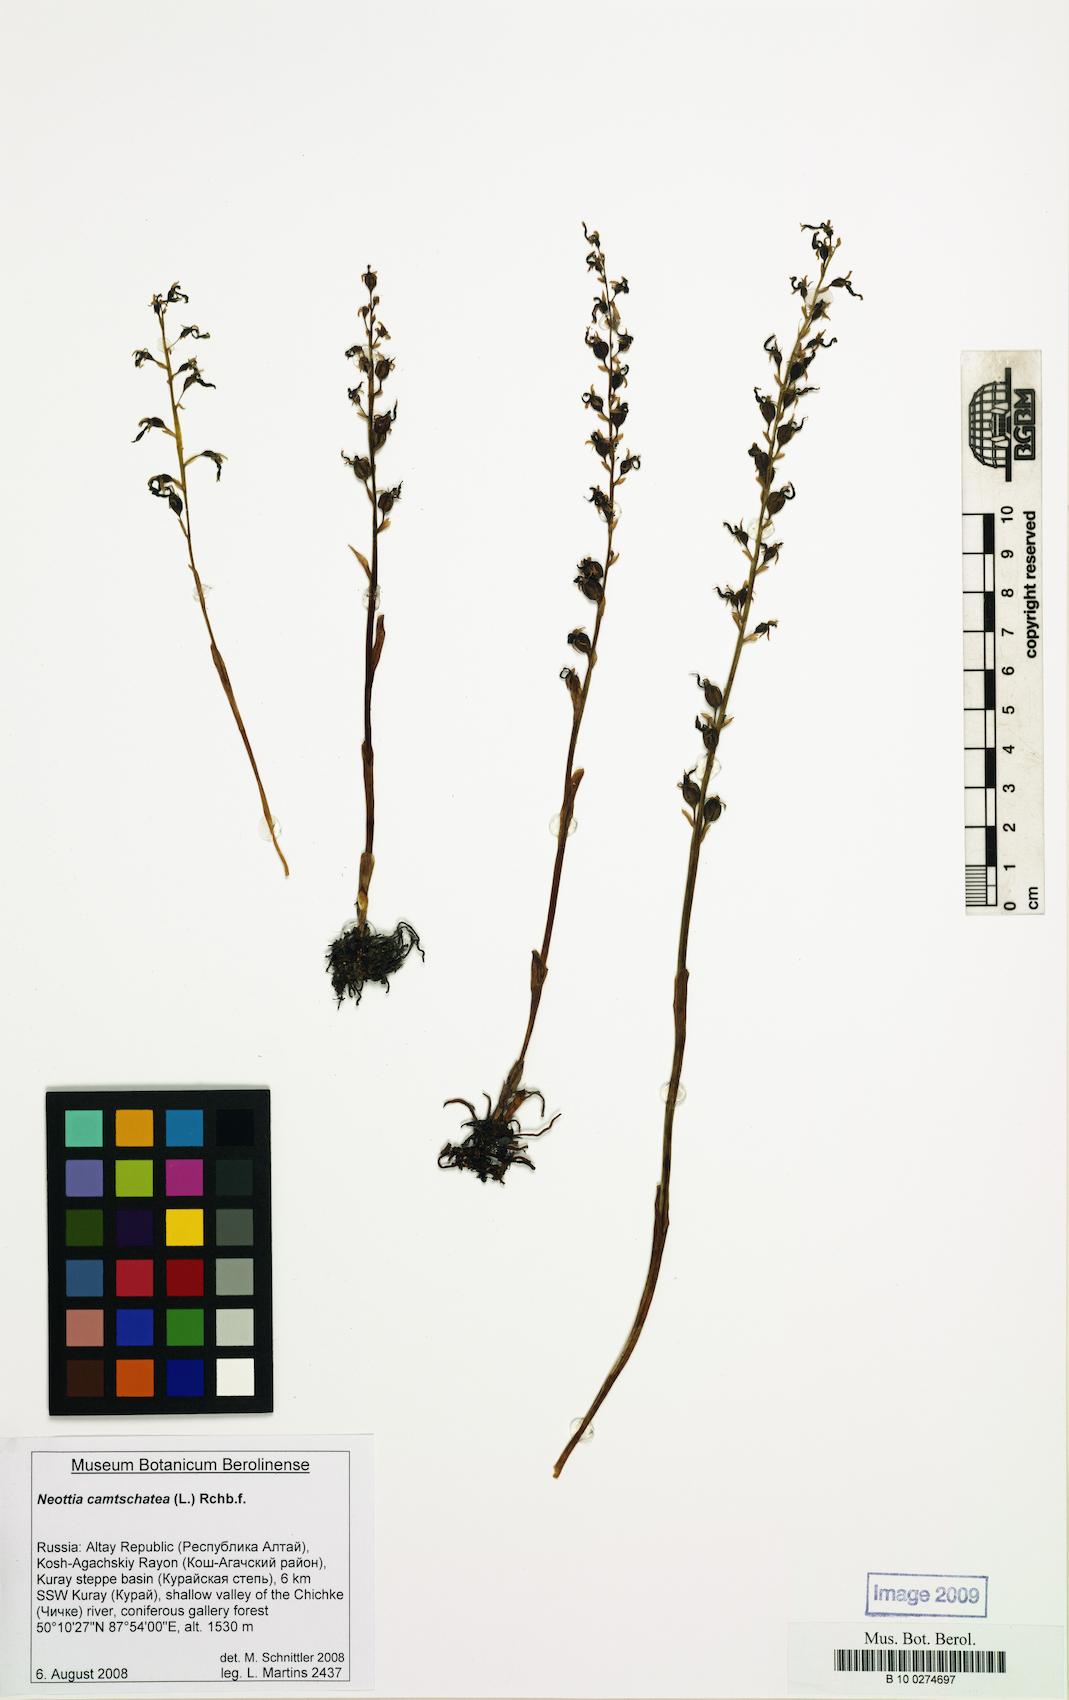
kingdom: Plantae
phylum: Tracheophyta
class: Liliopsida
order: Asparagales
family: Orchidaceae
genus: Neottia
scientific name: Neottia camtschatea
